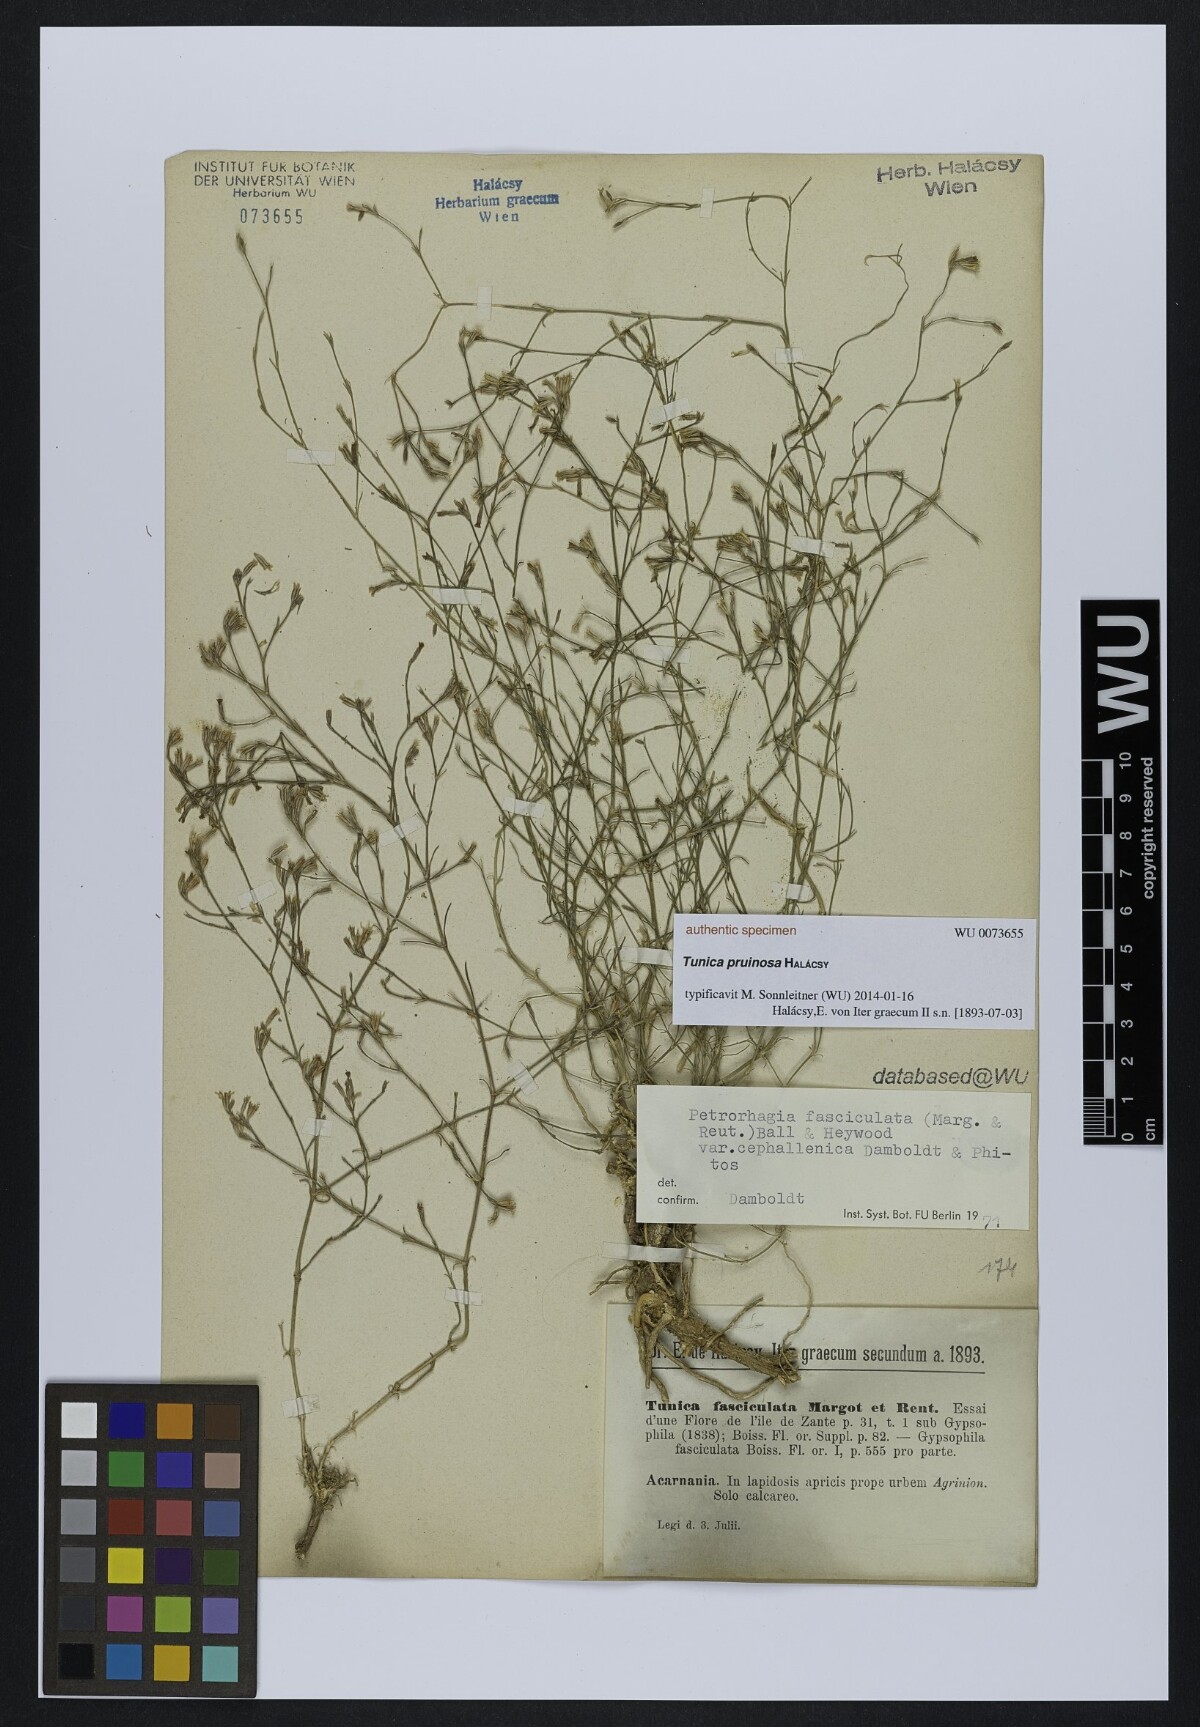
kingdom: Plantae
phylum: Tracheophyta
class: Magnoliopsida
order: Caryophyllales
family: Caryophyllaceae
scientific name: Caryophyllaceae
